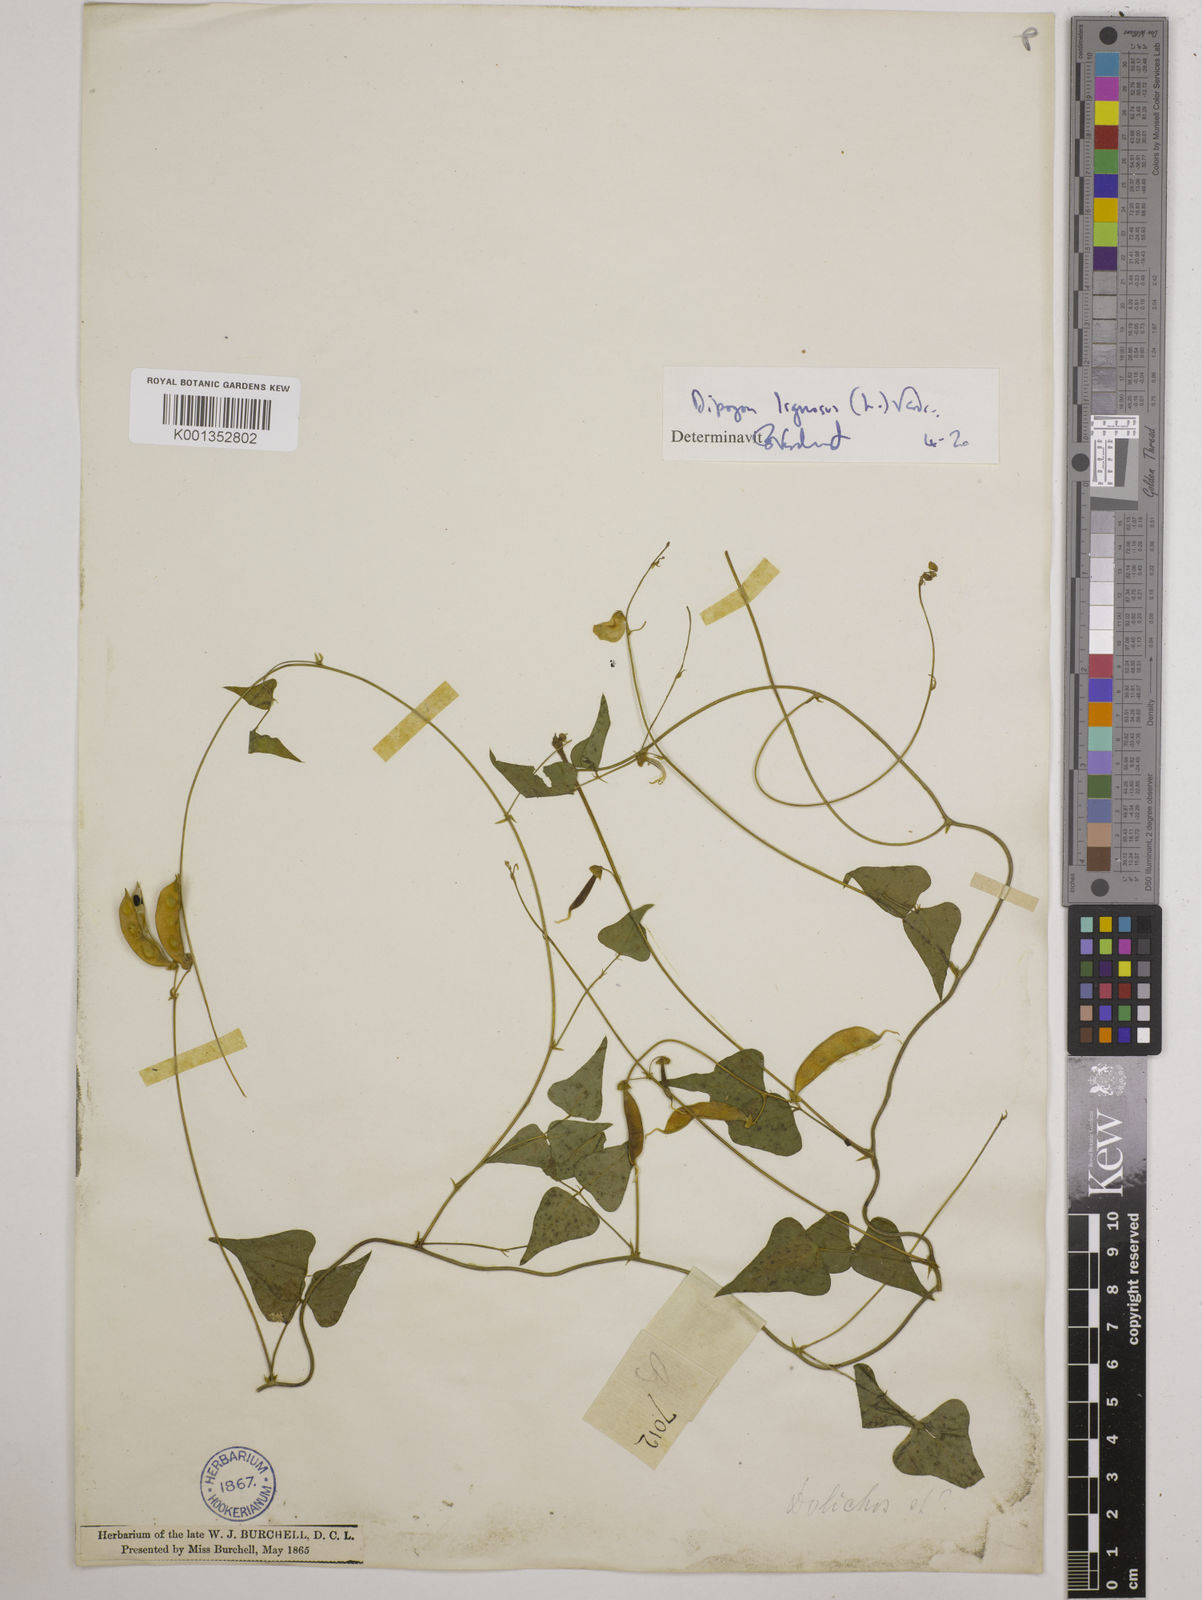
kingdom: Plantae
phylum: Tracheophyta
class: Magnoliopsida
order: Fabales
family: Fabaceae
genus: Dipogon
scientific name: Dipogon lignosus
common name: Okie bean
